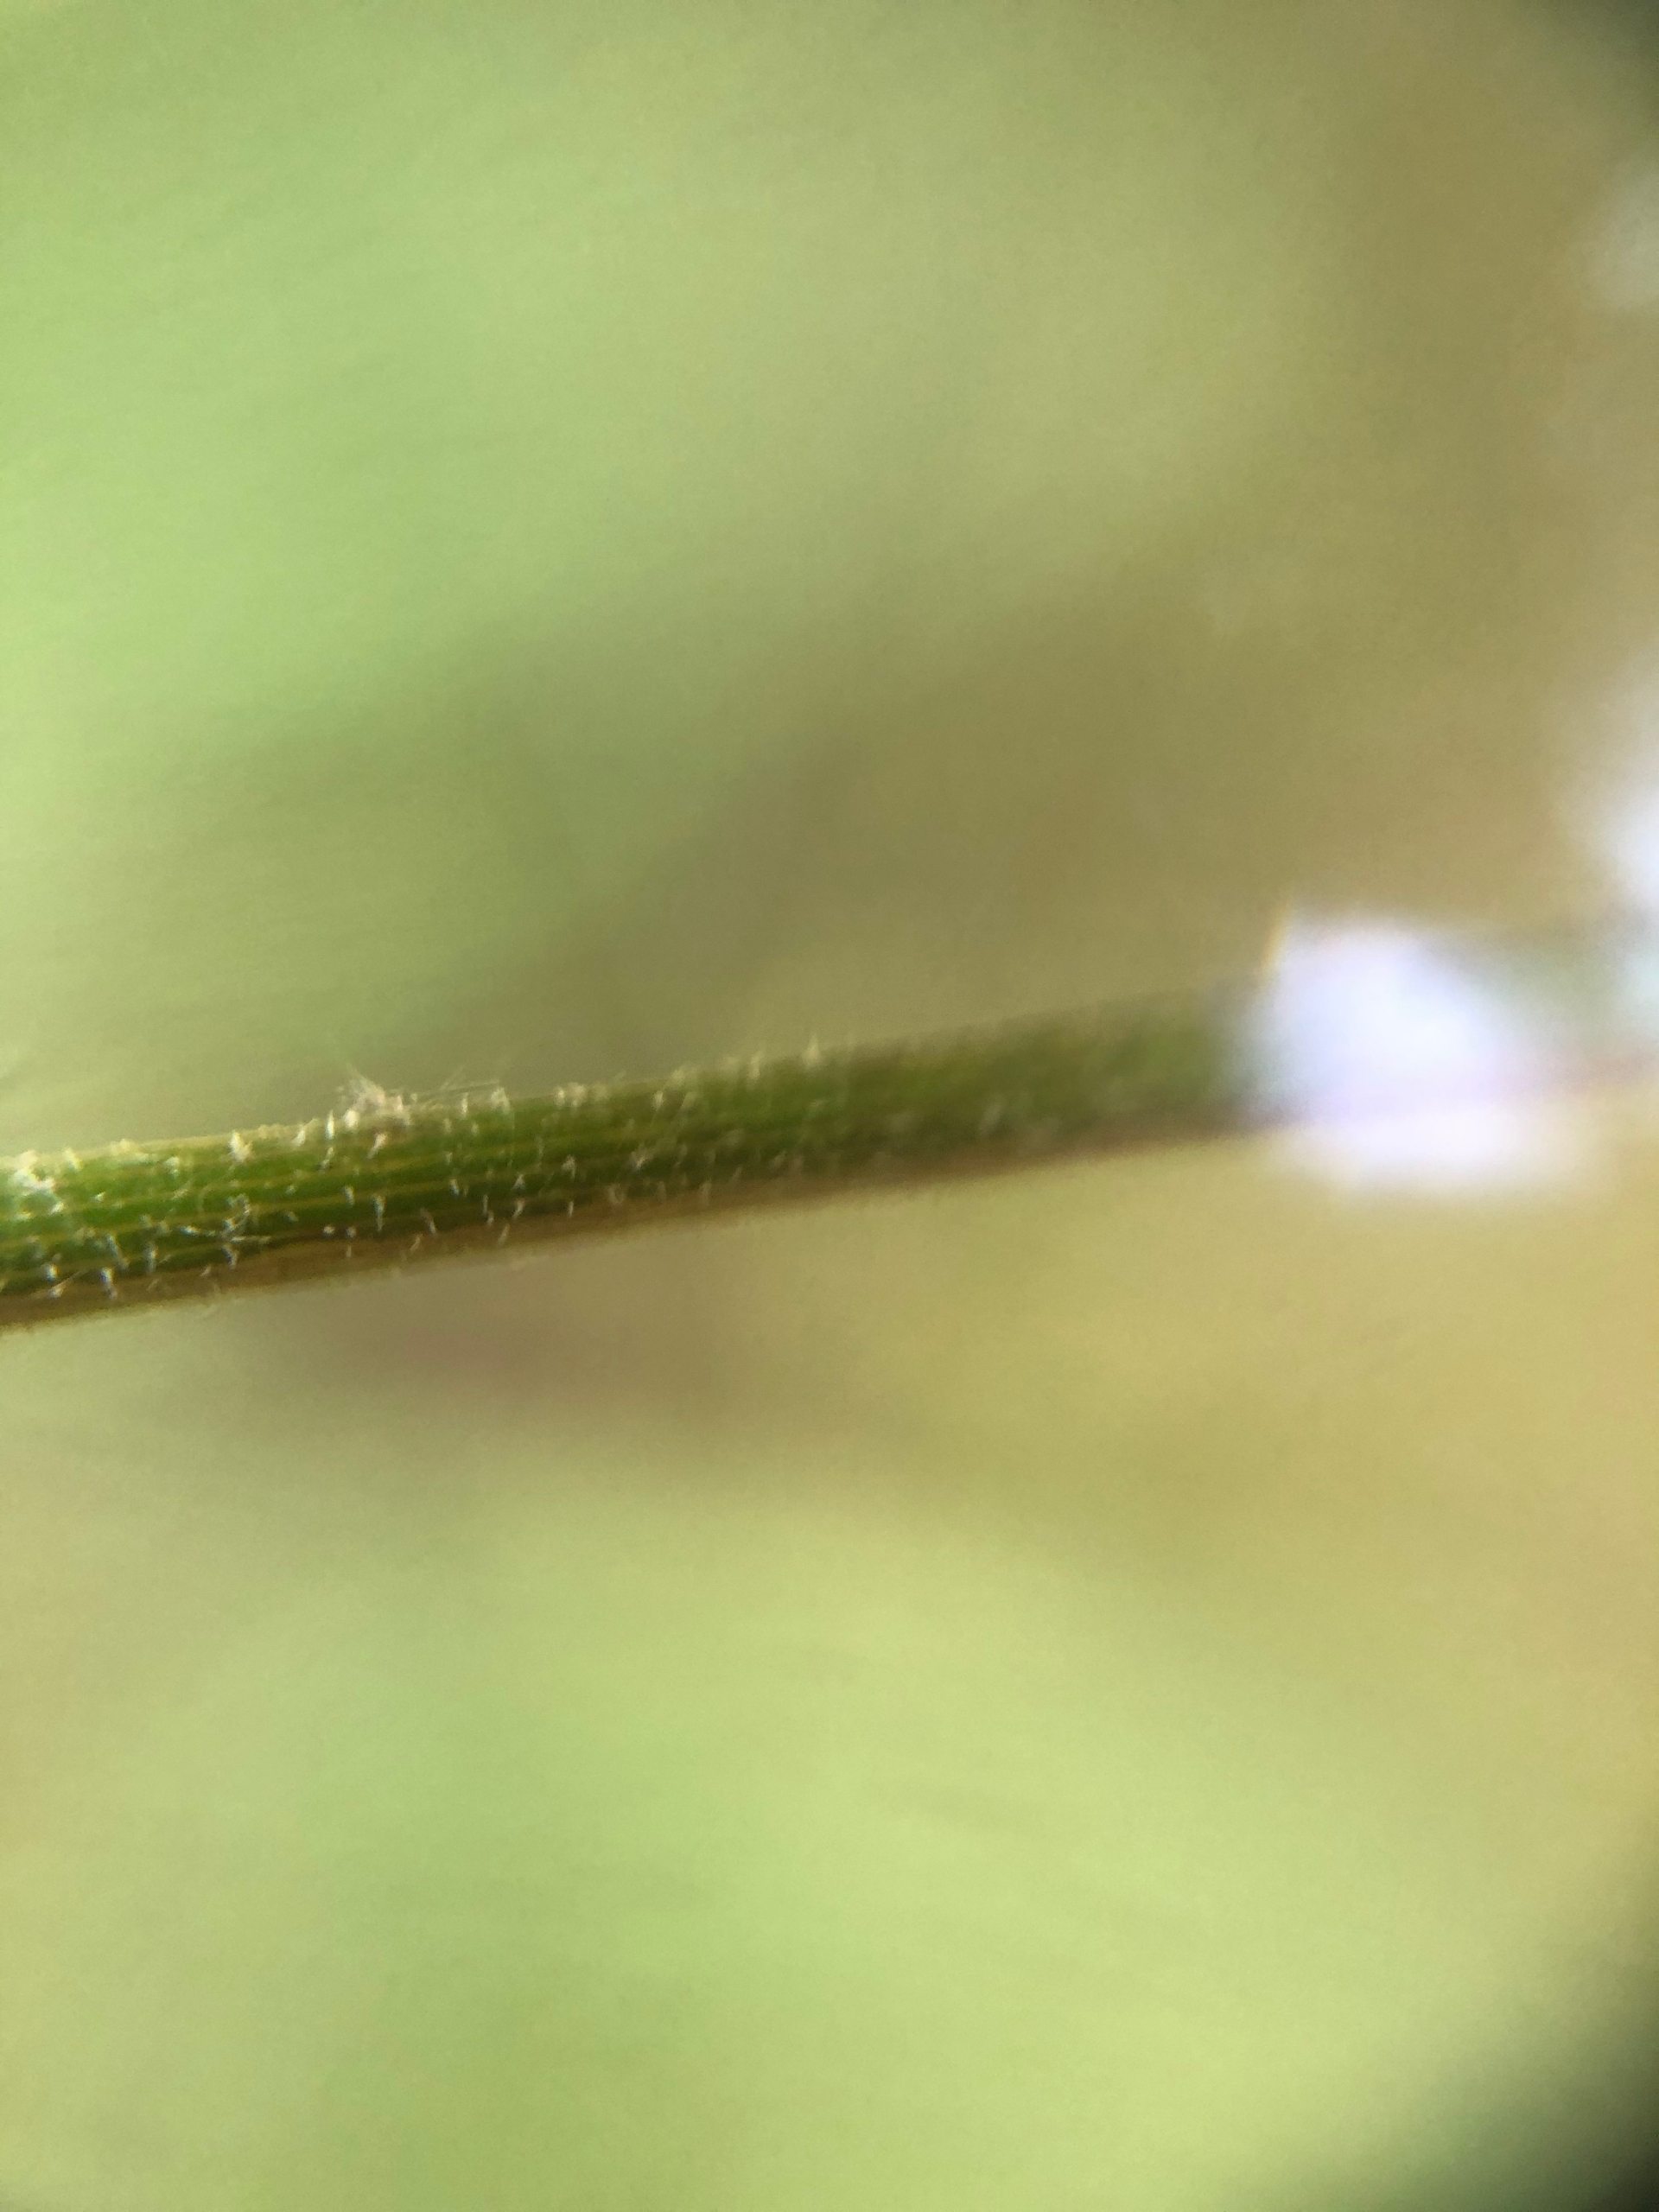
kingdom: Plantae
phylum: Tracheophyta
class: Magnoliopsida
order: Apiales
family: Apiaceae
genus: Chaerophyllum
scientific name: Chaerophyllum temulum
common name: Almindelig hulsvøb
